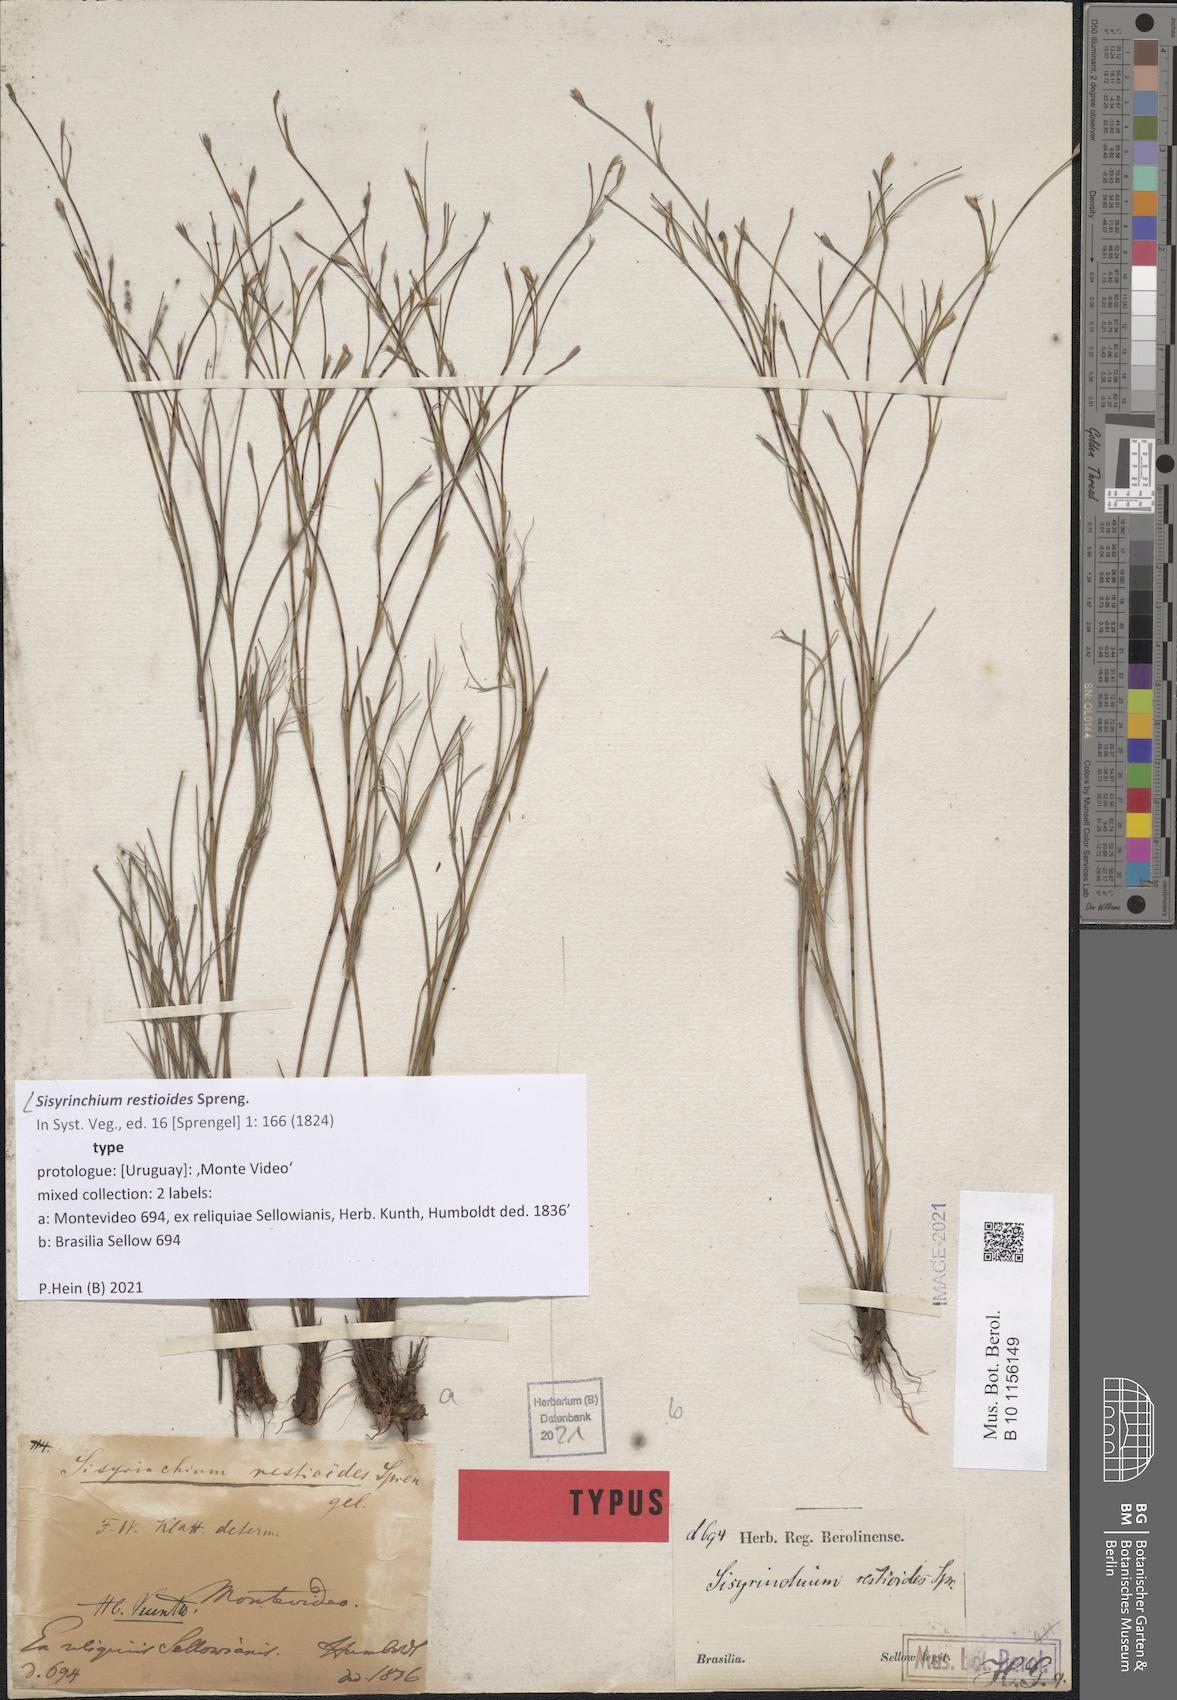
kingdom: Plantae
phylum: Tracheophyta
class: Liliopsida
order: Asparagales
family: Iridaceae
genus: Sisyrinchium
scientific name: Sisyrinchium restioides
